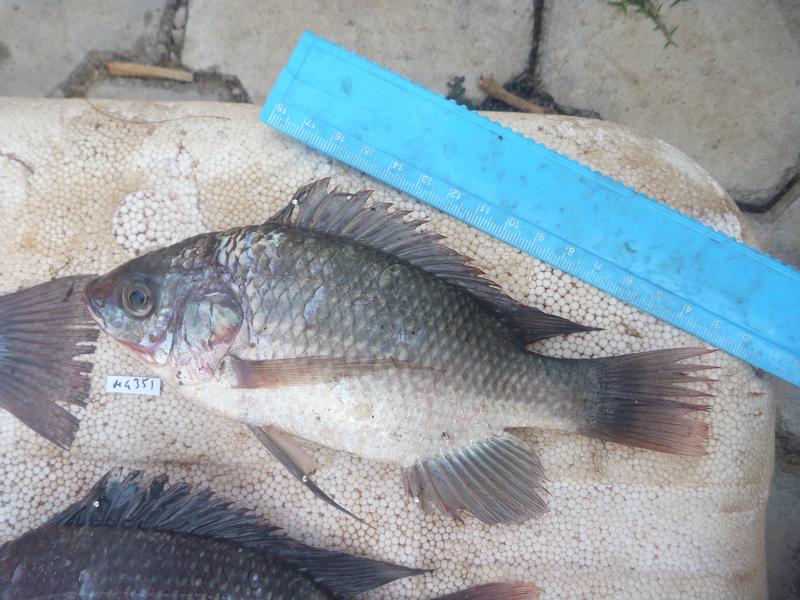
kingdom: Animalia
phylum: Chordata
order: Perciformes
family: Cichlidae
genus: Oreochromis
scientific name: Oreochromis esculentus
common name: Carp
